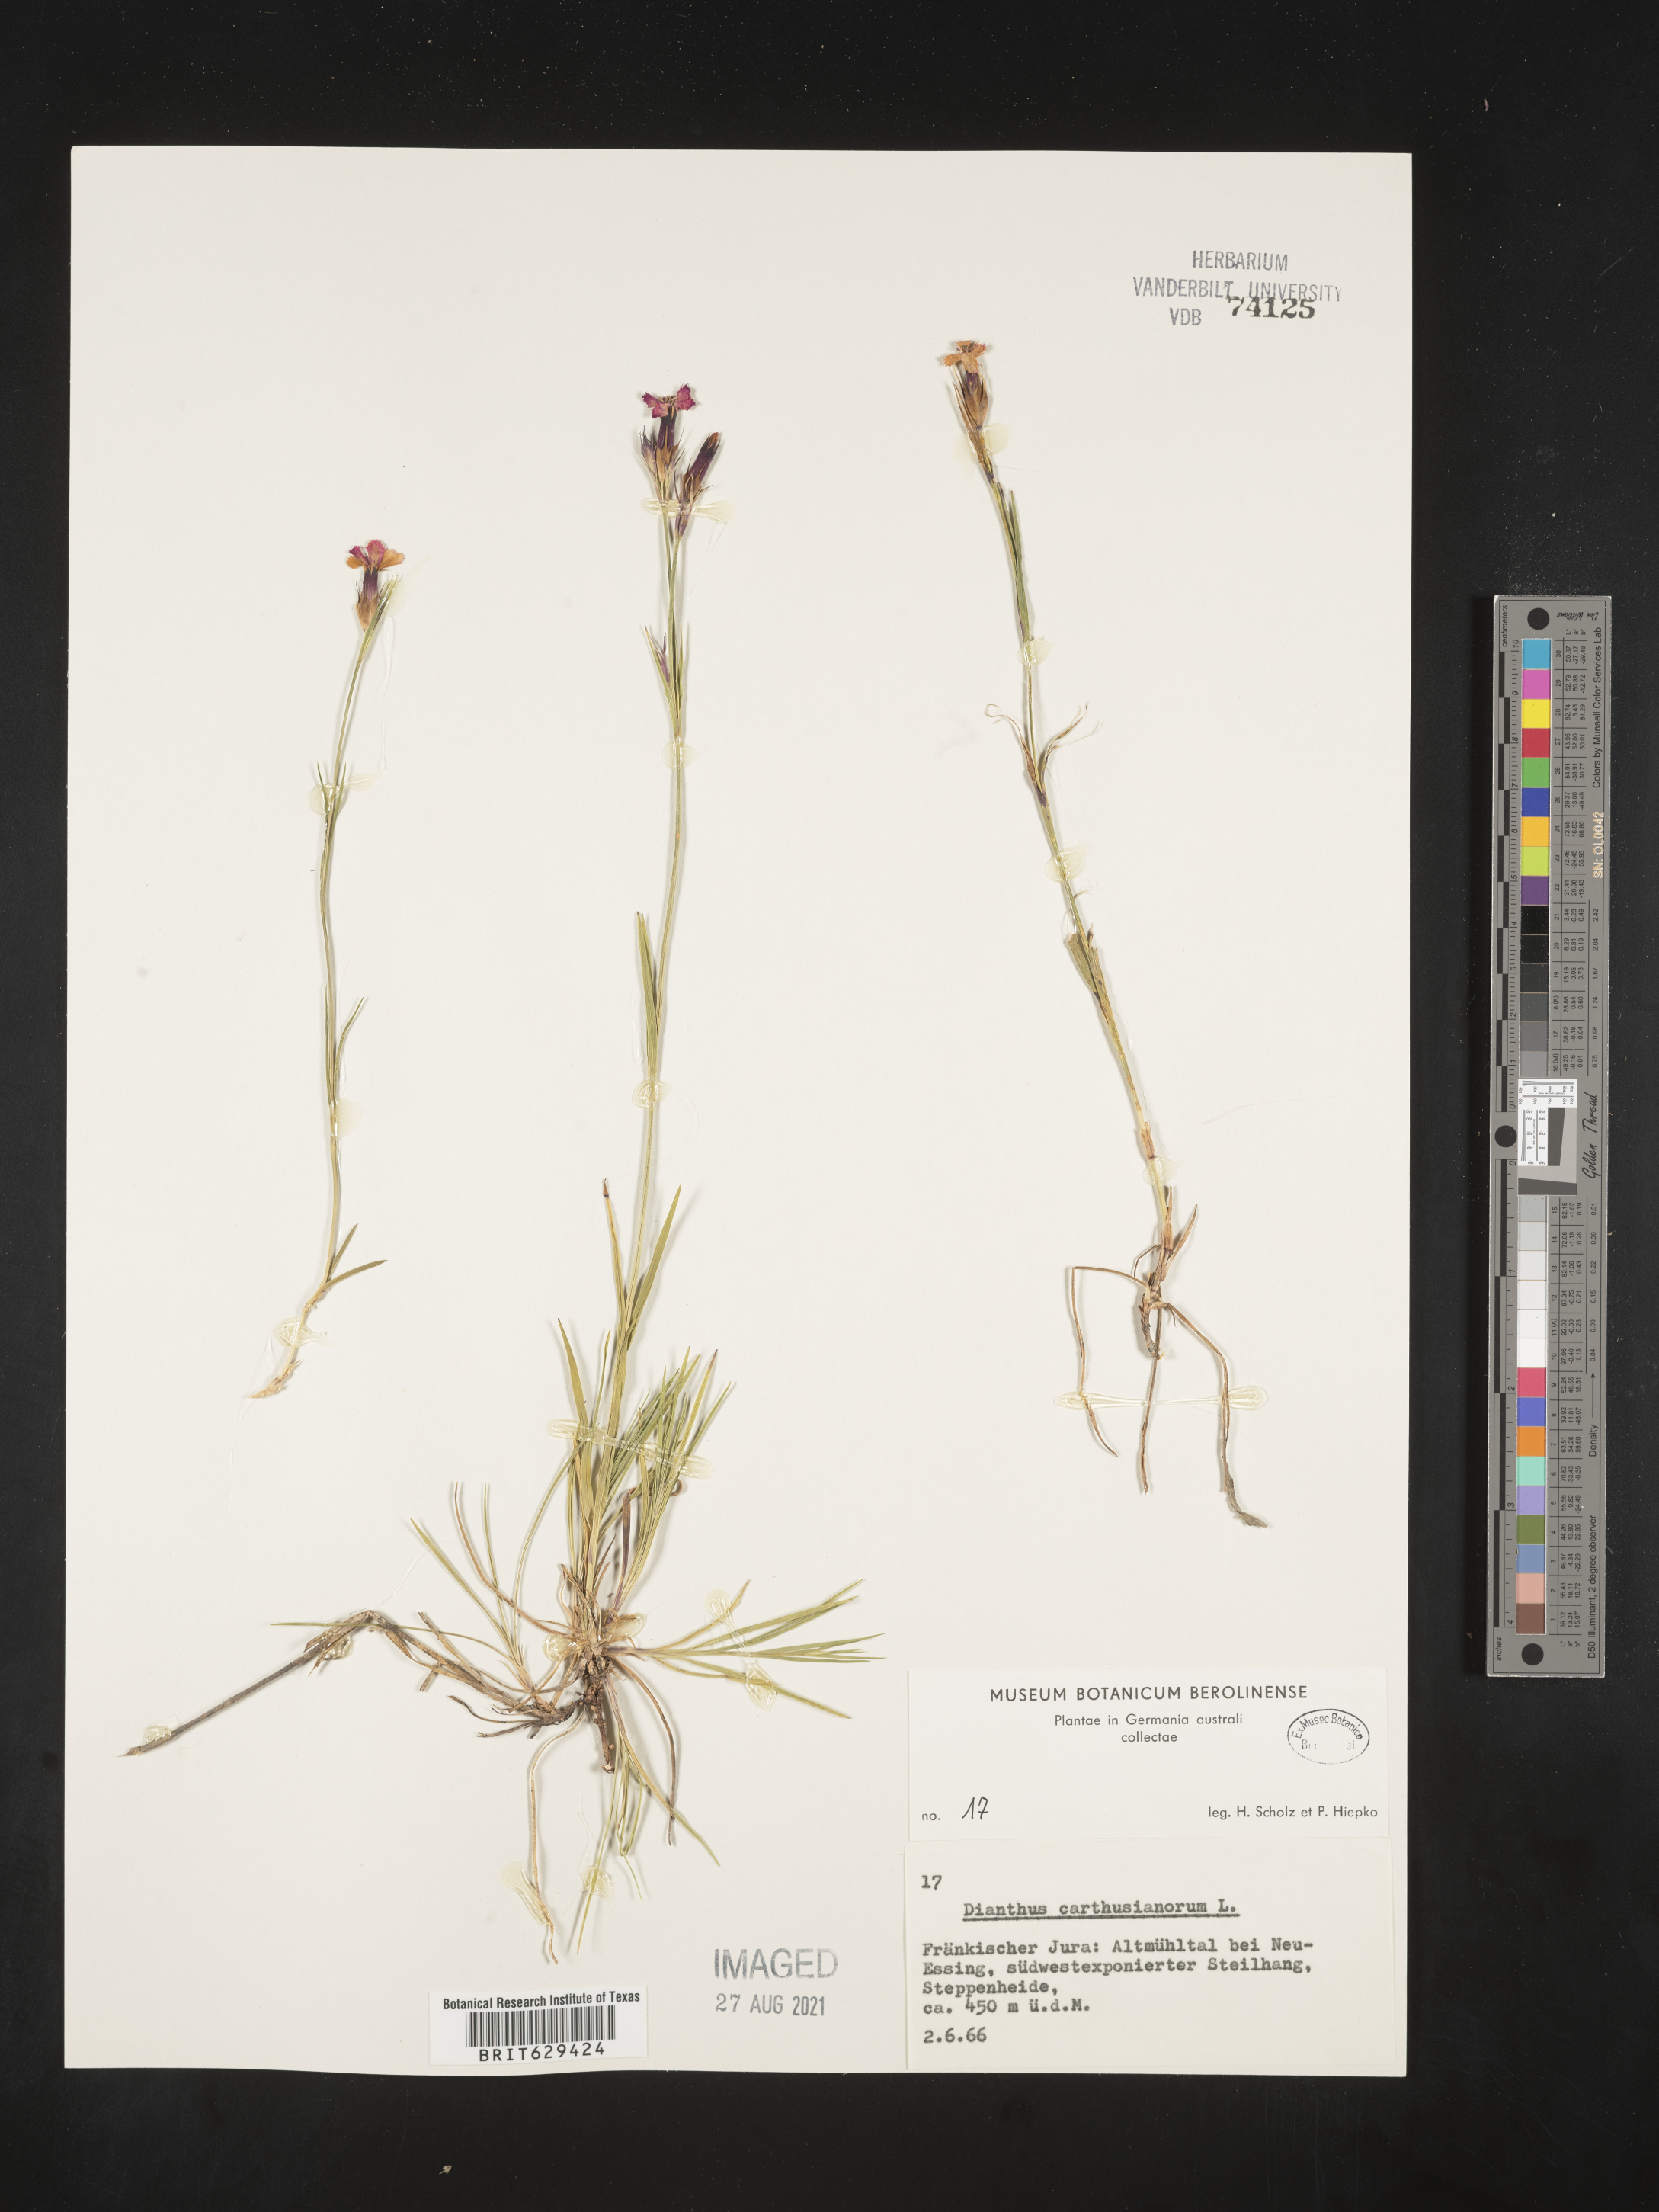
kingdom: Plantae
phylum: Tracheophyta
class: Magnoliopsida
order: Caryophyllales
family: Caryophyllaceae
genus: Dianthus
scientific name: Dianthus carthusianorum
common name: Carthusian pink
